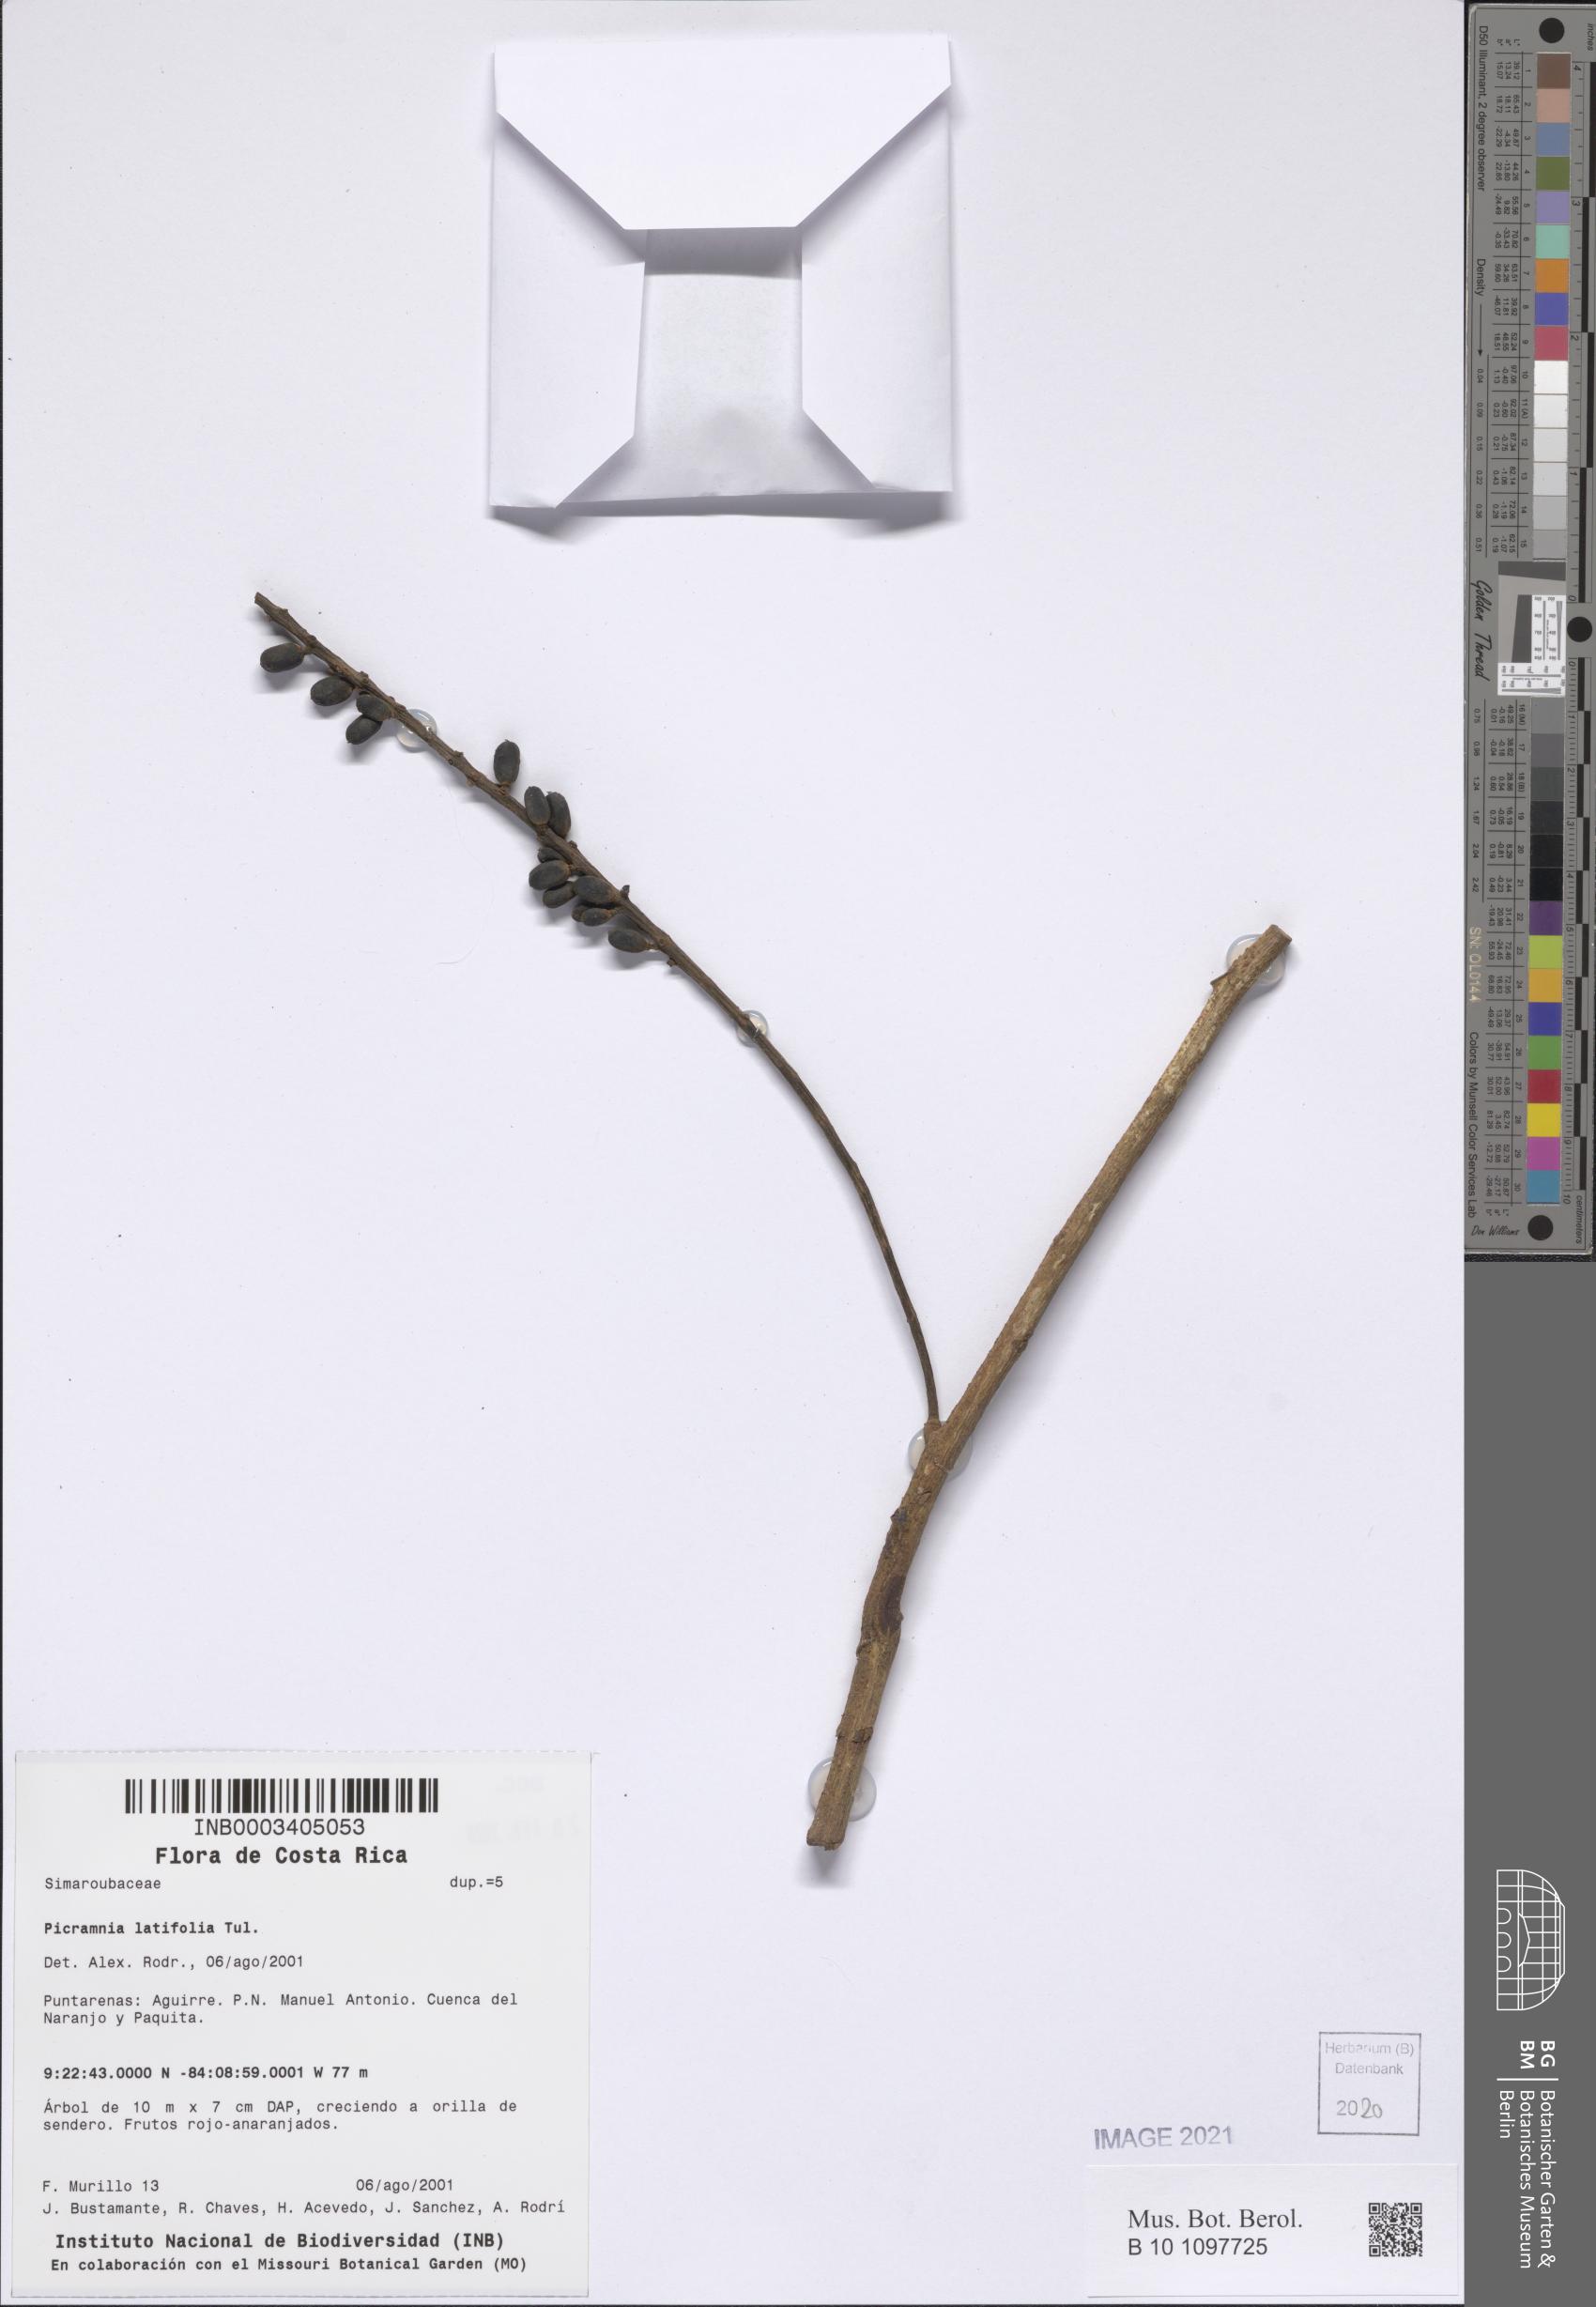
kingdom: Plantae
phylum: Tracheophyta
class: Magnoliopsida
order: Picramniales
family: Picramniaceae
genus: Picramnia
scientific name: Picramnia latifolia
